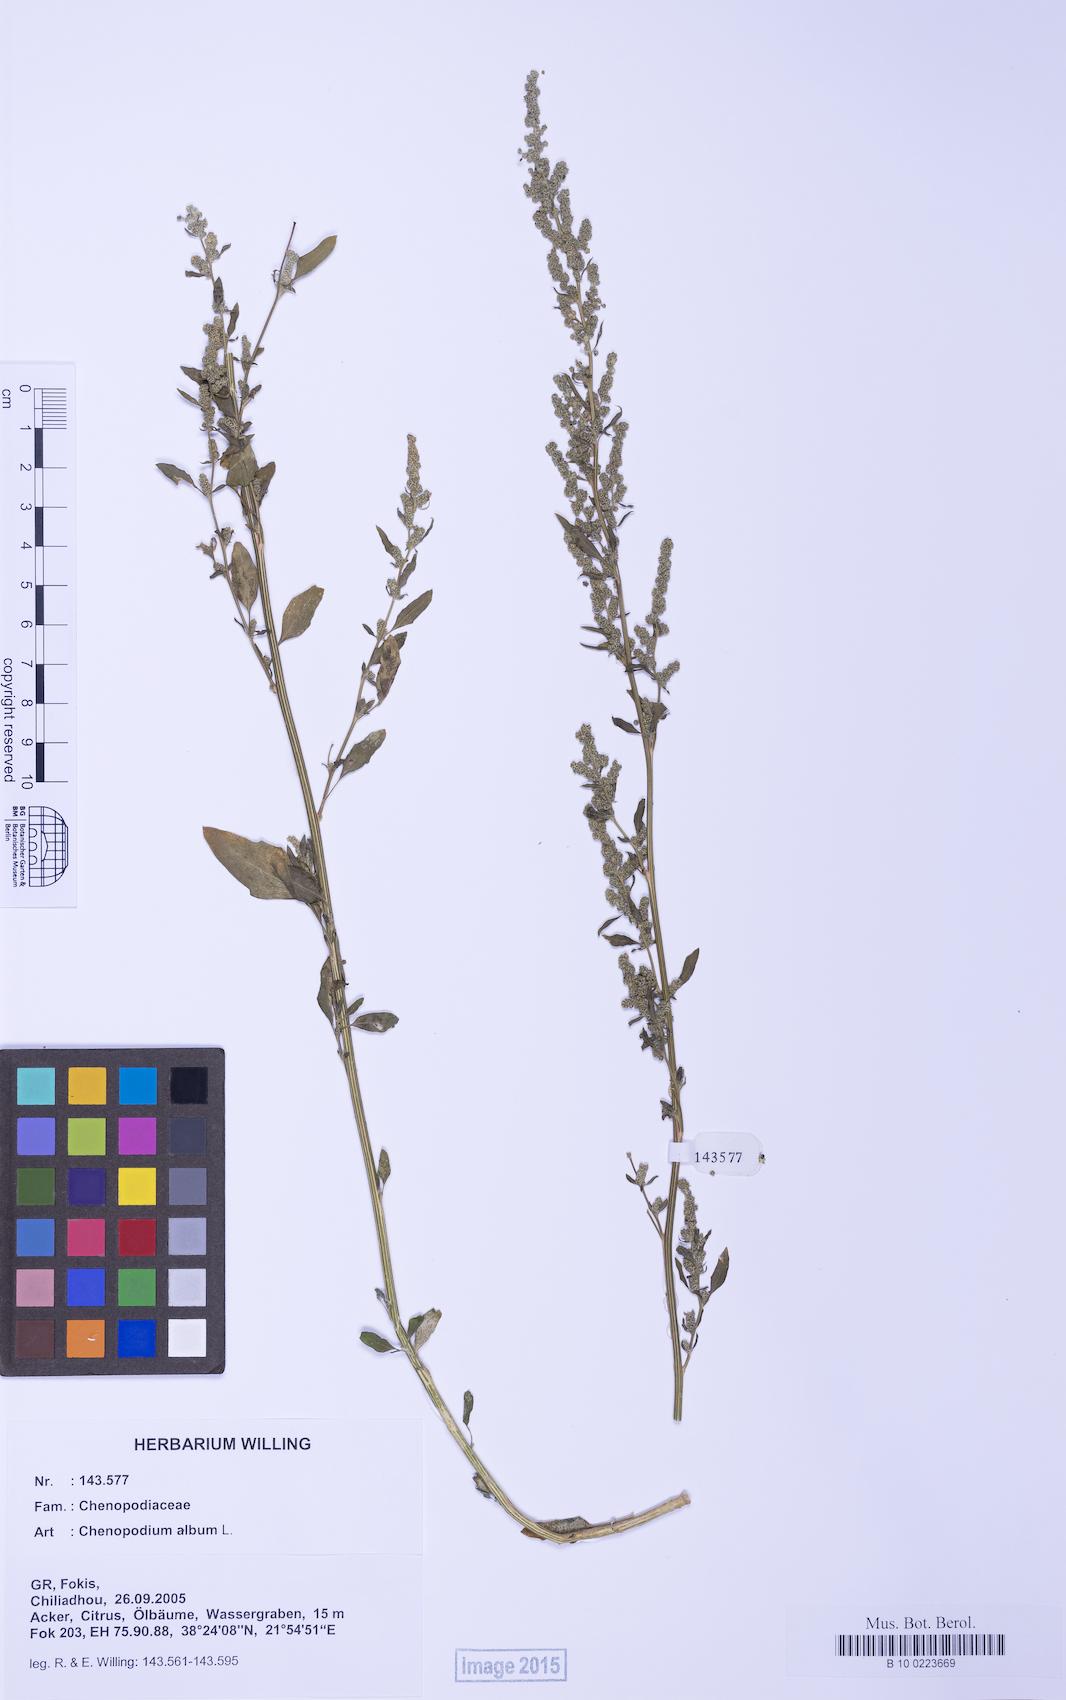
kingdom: Plantae
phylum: Tracheophyta
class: Magnoliopsida
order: Caryophyllales
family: Amaranthaceae
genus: Chenopodium
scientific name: Chenopodium album
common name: Fat-hen
